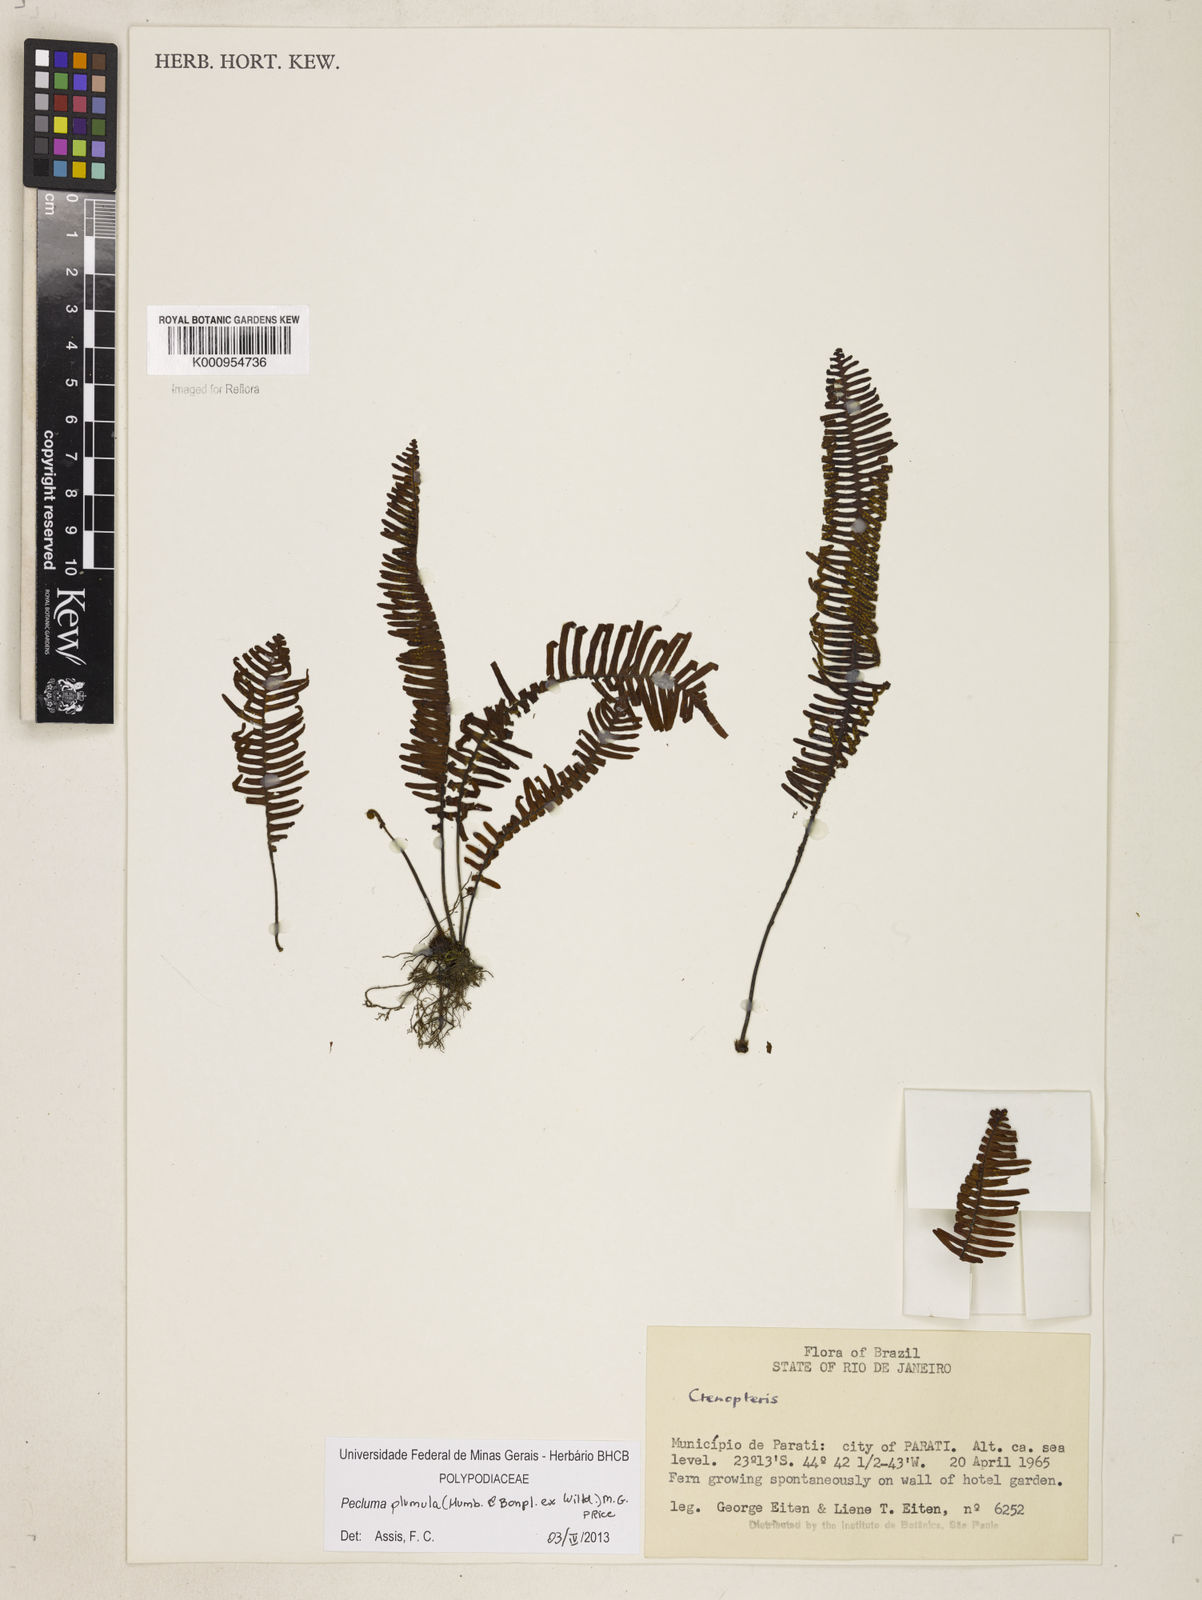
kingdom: Plantae
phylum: Tracheophyta
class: Polypodiopsida
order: Polypodiales
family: Polypodiaceae
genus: Pecluma
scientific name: Pecluma plumula
